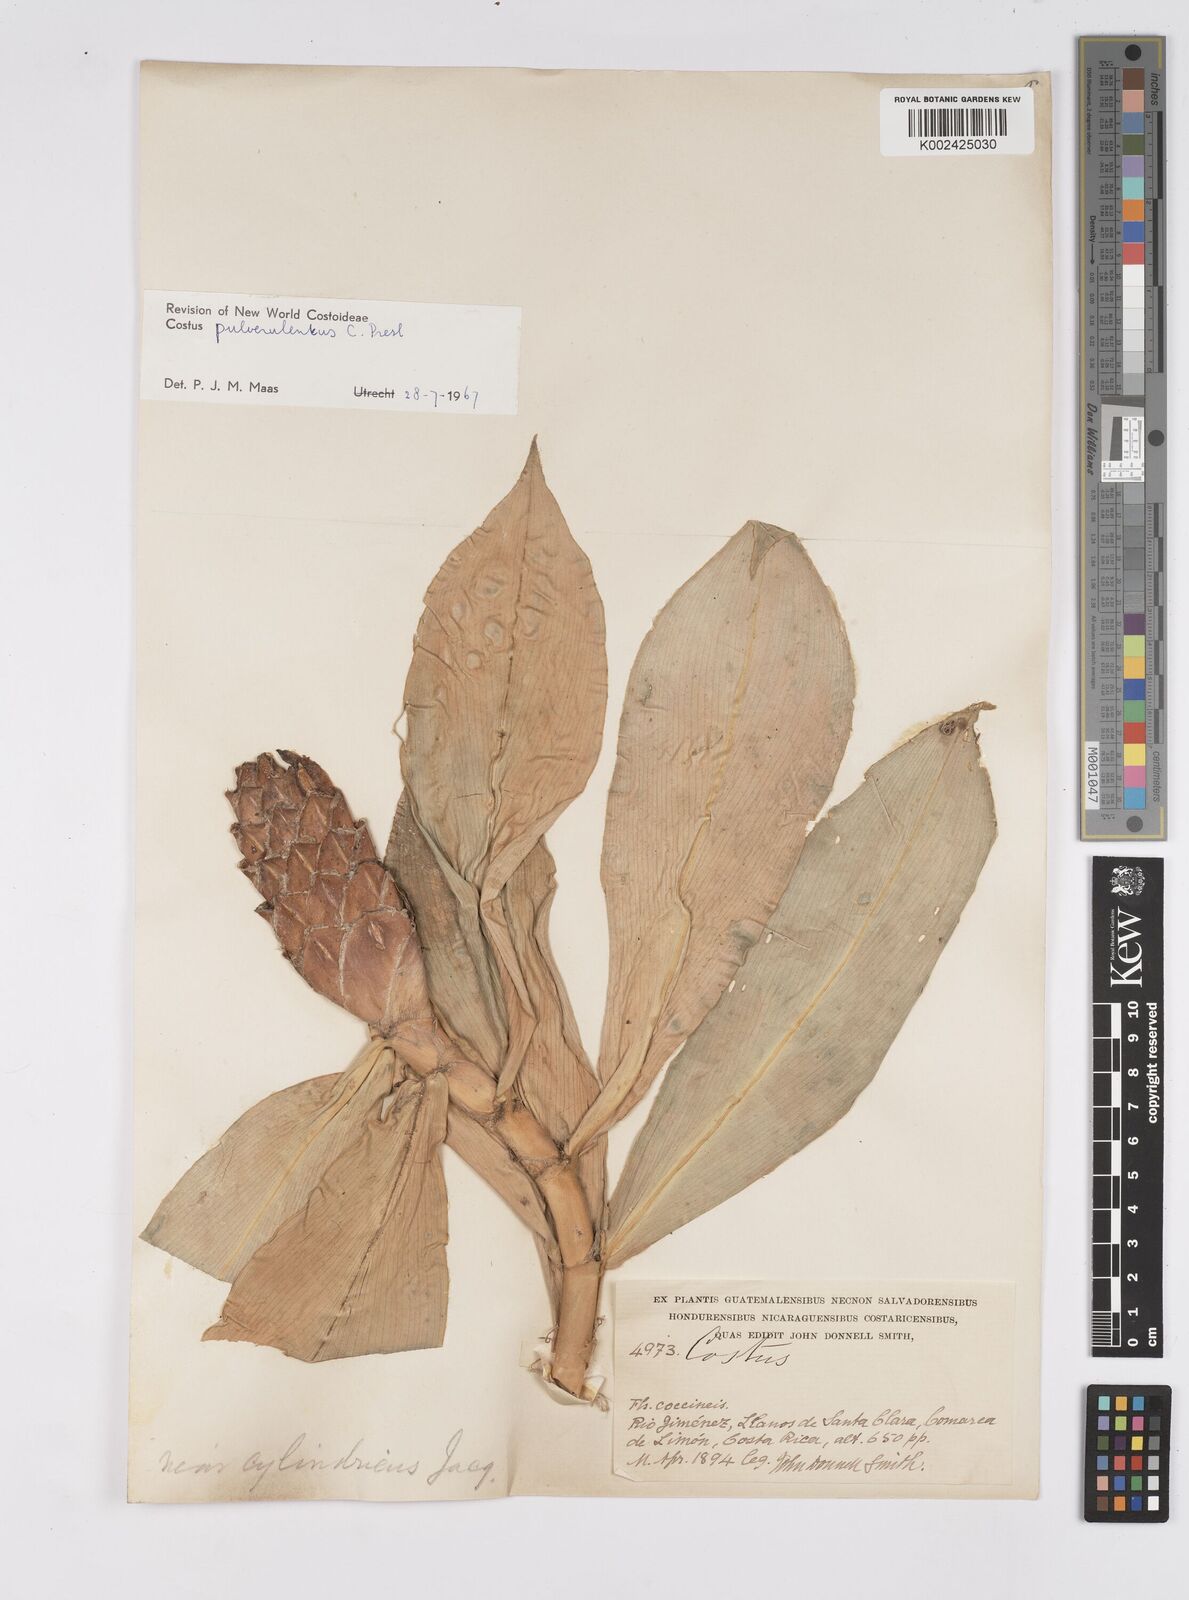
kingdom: Plantae
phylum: Tracheophyta
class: Liliopsida
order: Zingiberales
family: Costaceae
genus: Costus
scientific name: Costus pulverulentus
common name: Spiral ginger
